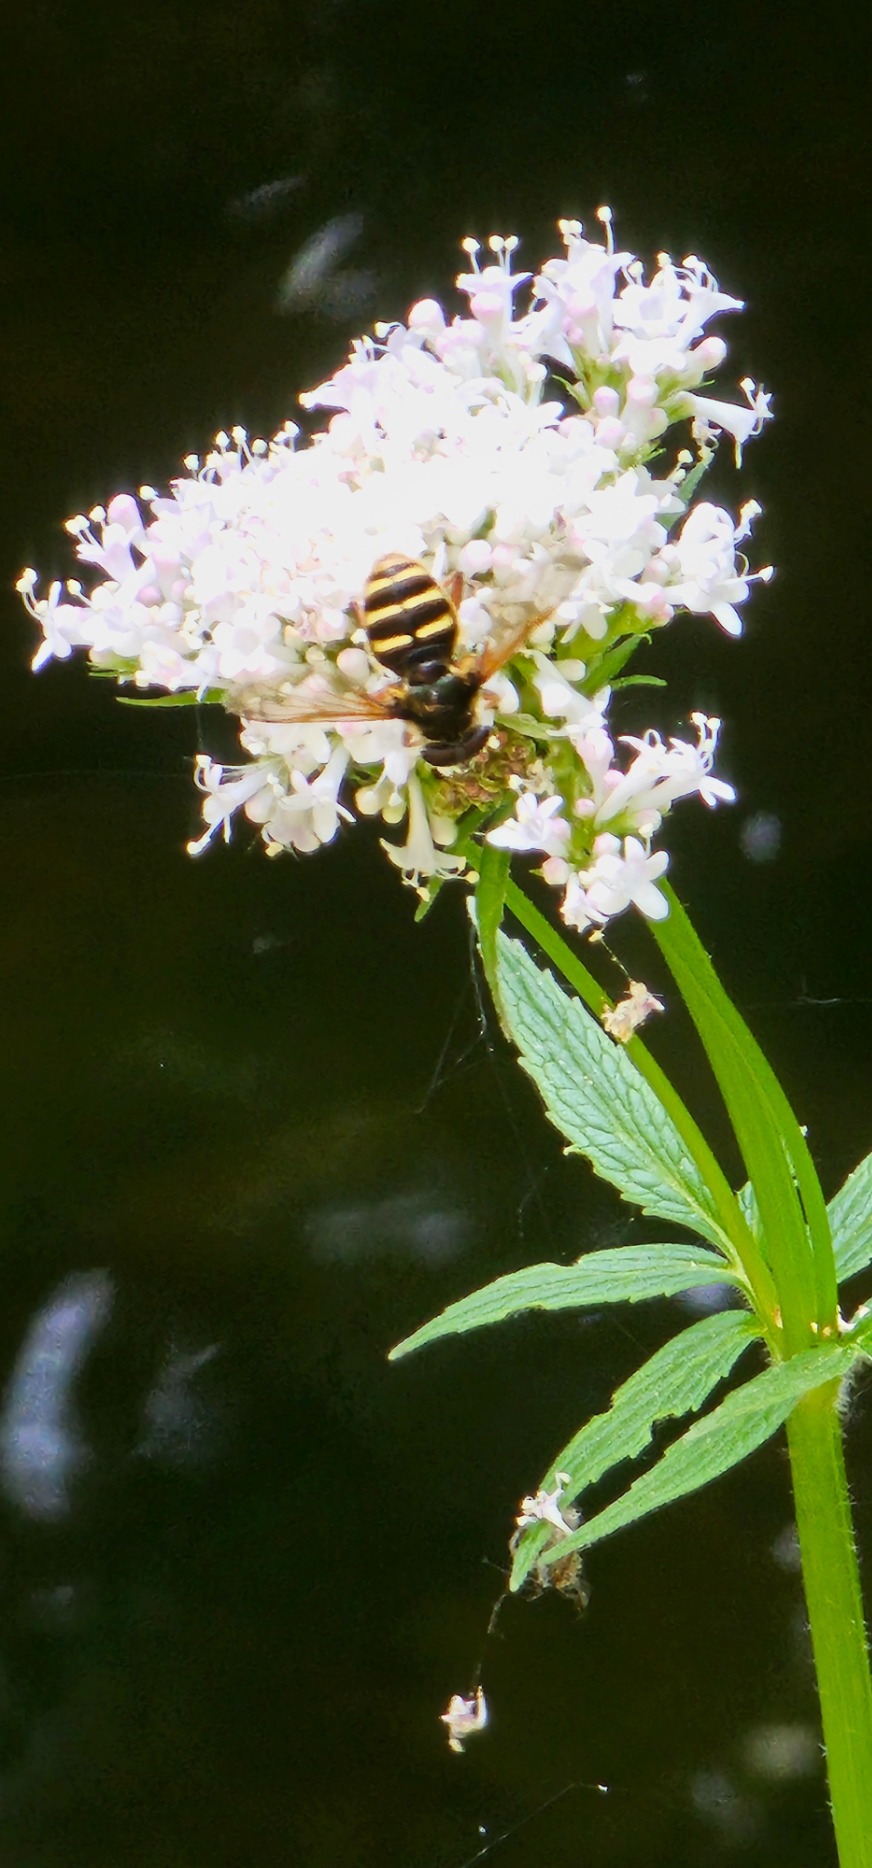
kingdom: Animalia
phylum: Arthropoda
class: Insecta
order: Diptera
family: Syrphidae
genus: Sericomyia
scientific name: Sericomyia silentis
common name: Tørve-silkesvirreflue
